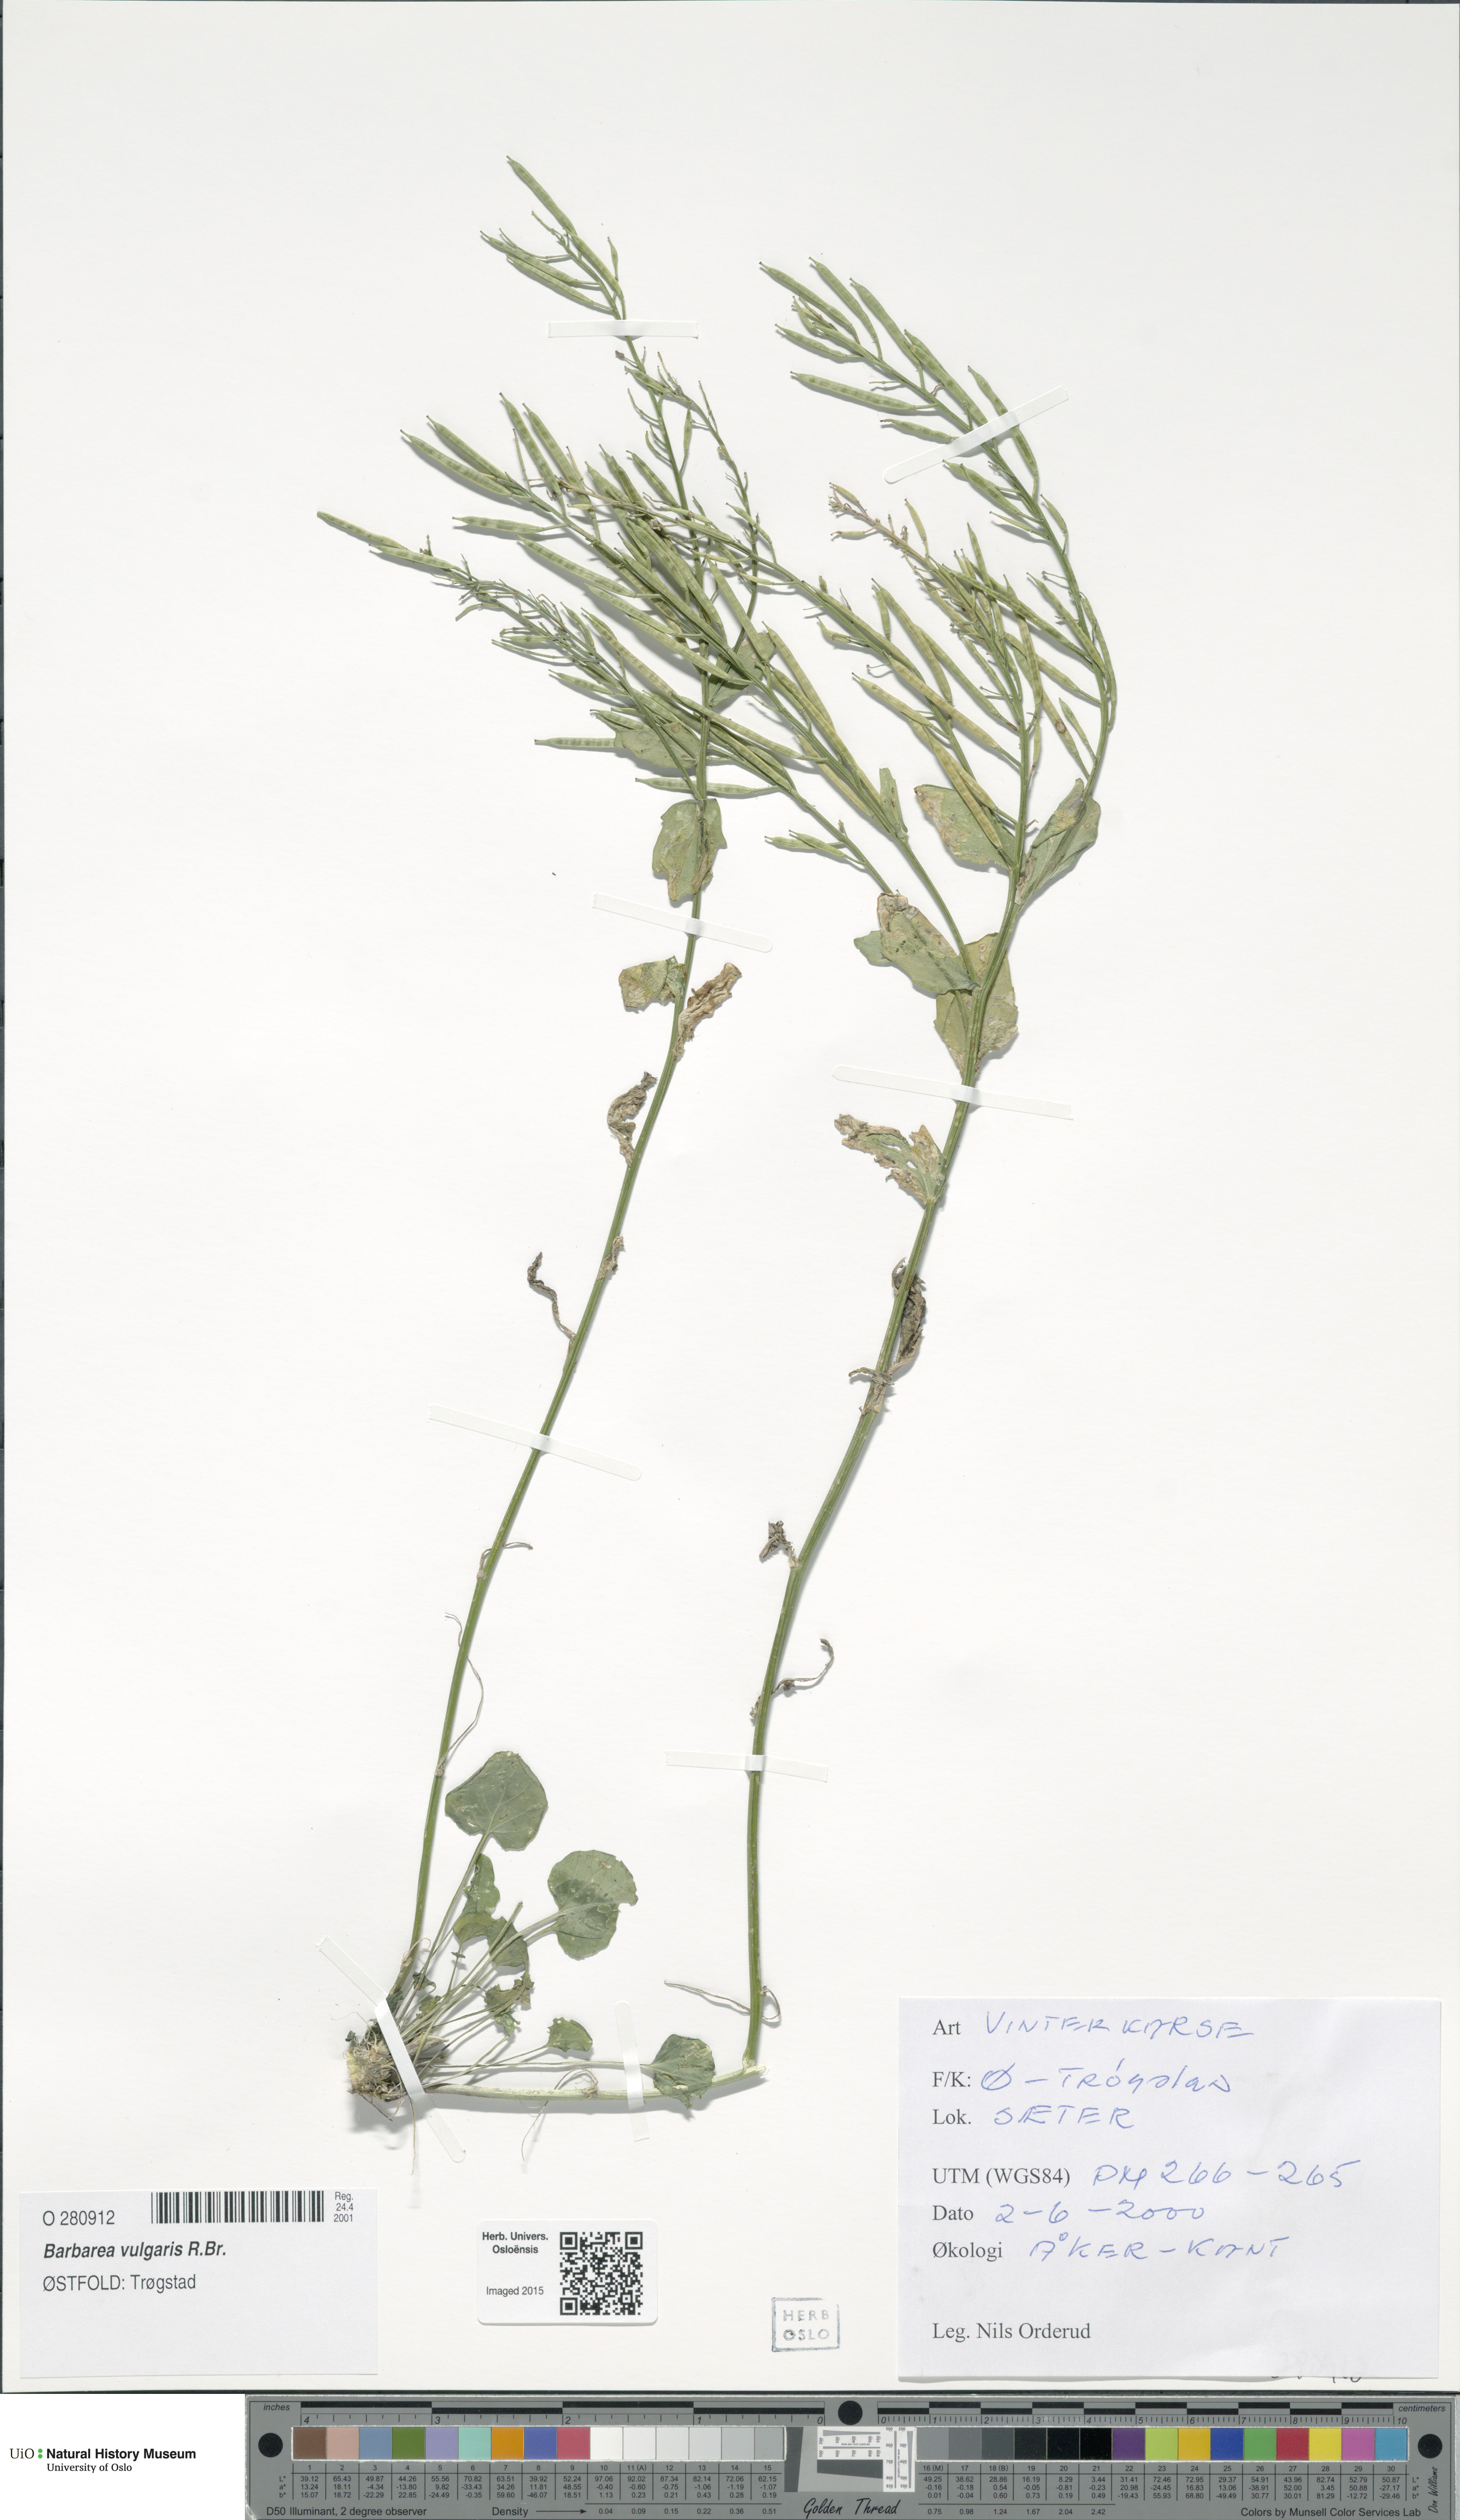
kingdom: Plantae
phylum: Tracheophyta
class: Magnoliopsida
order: Brassicales
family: Brassicaceae
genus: Barbarea
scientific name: Barbarea vulgaris
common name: Cressy-greens
